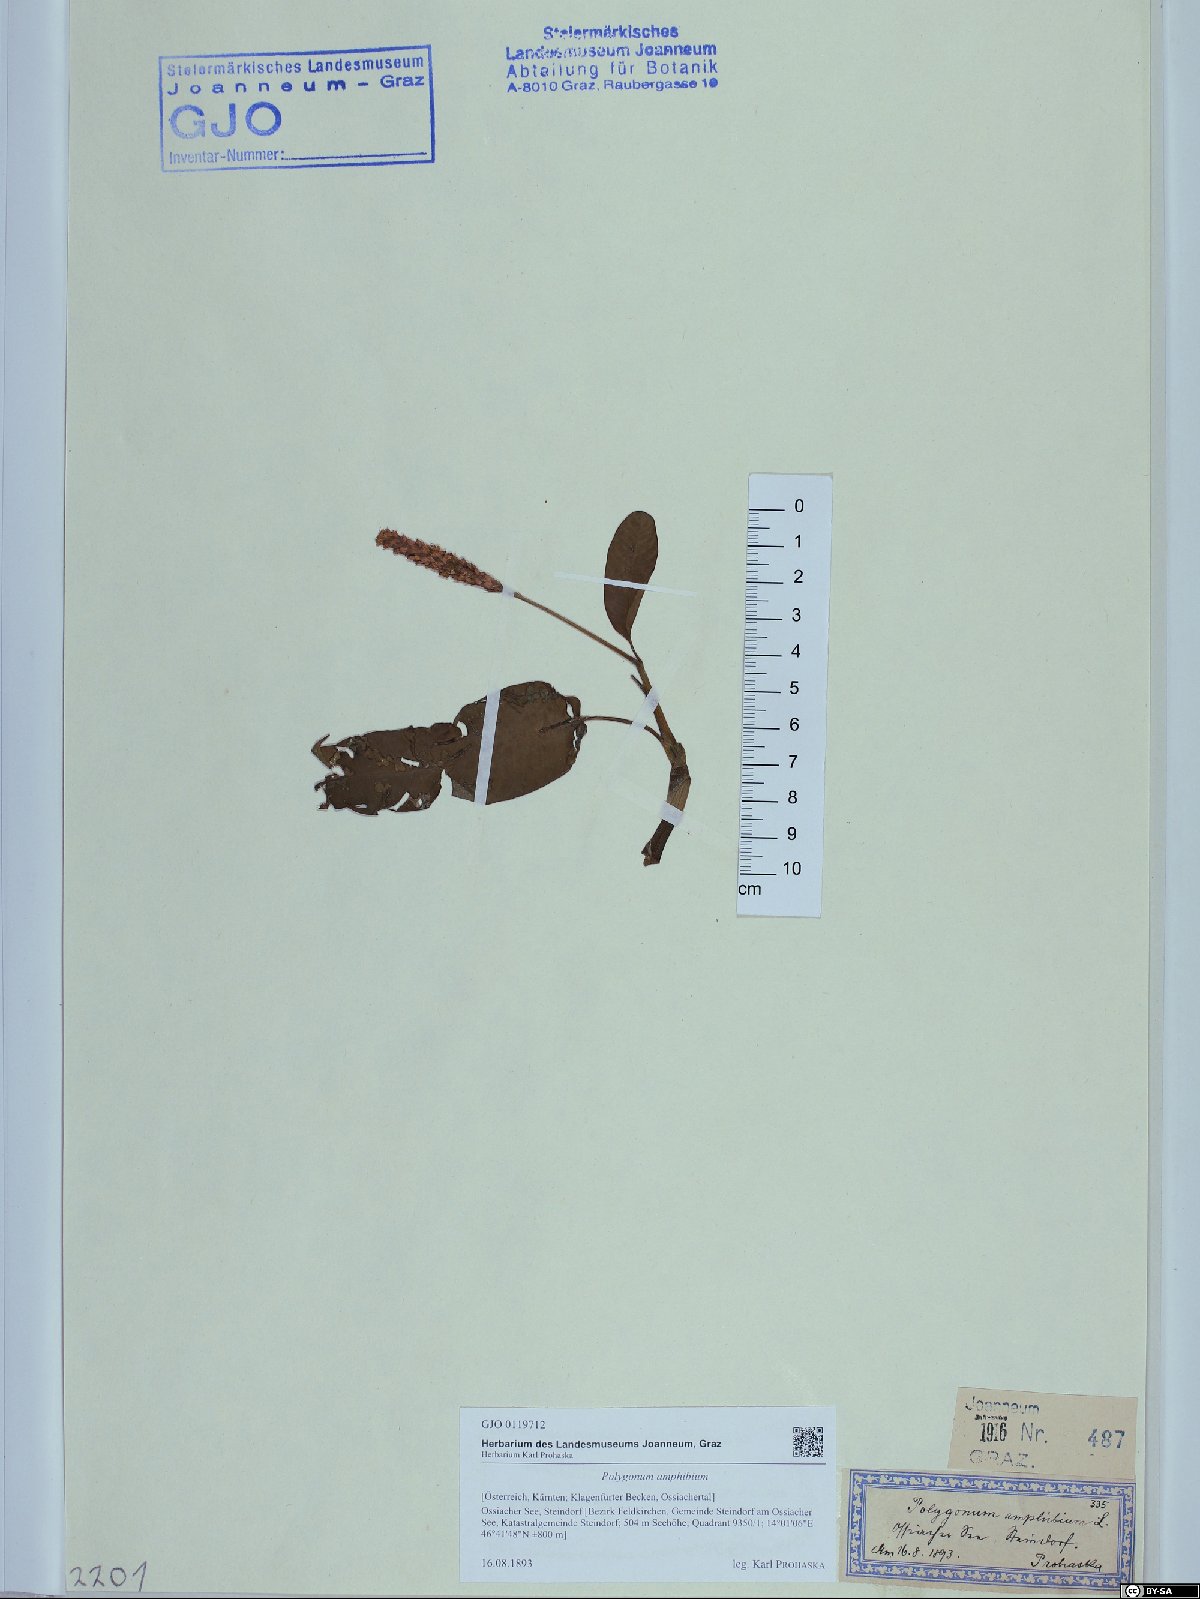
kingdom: Plantae
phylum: Tracheophyta
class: Magnoliopsida
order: Caryophyllales
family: Polygonaceae
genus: Persicaria
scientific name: Persicaria amphibia
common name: Amphibious bistort
